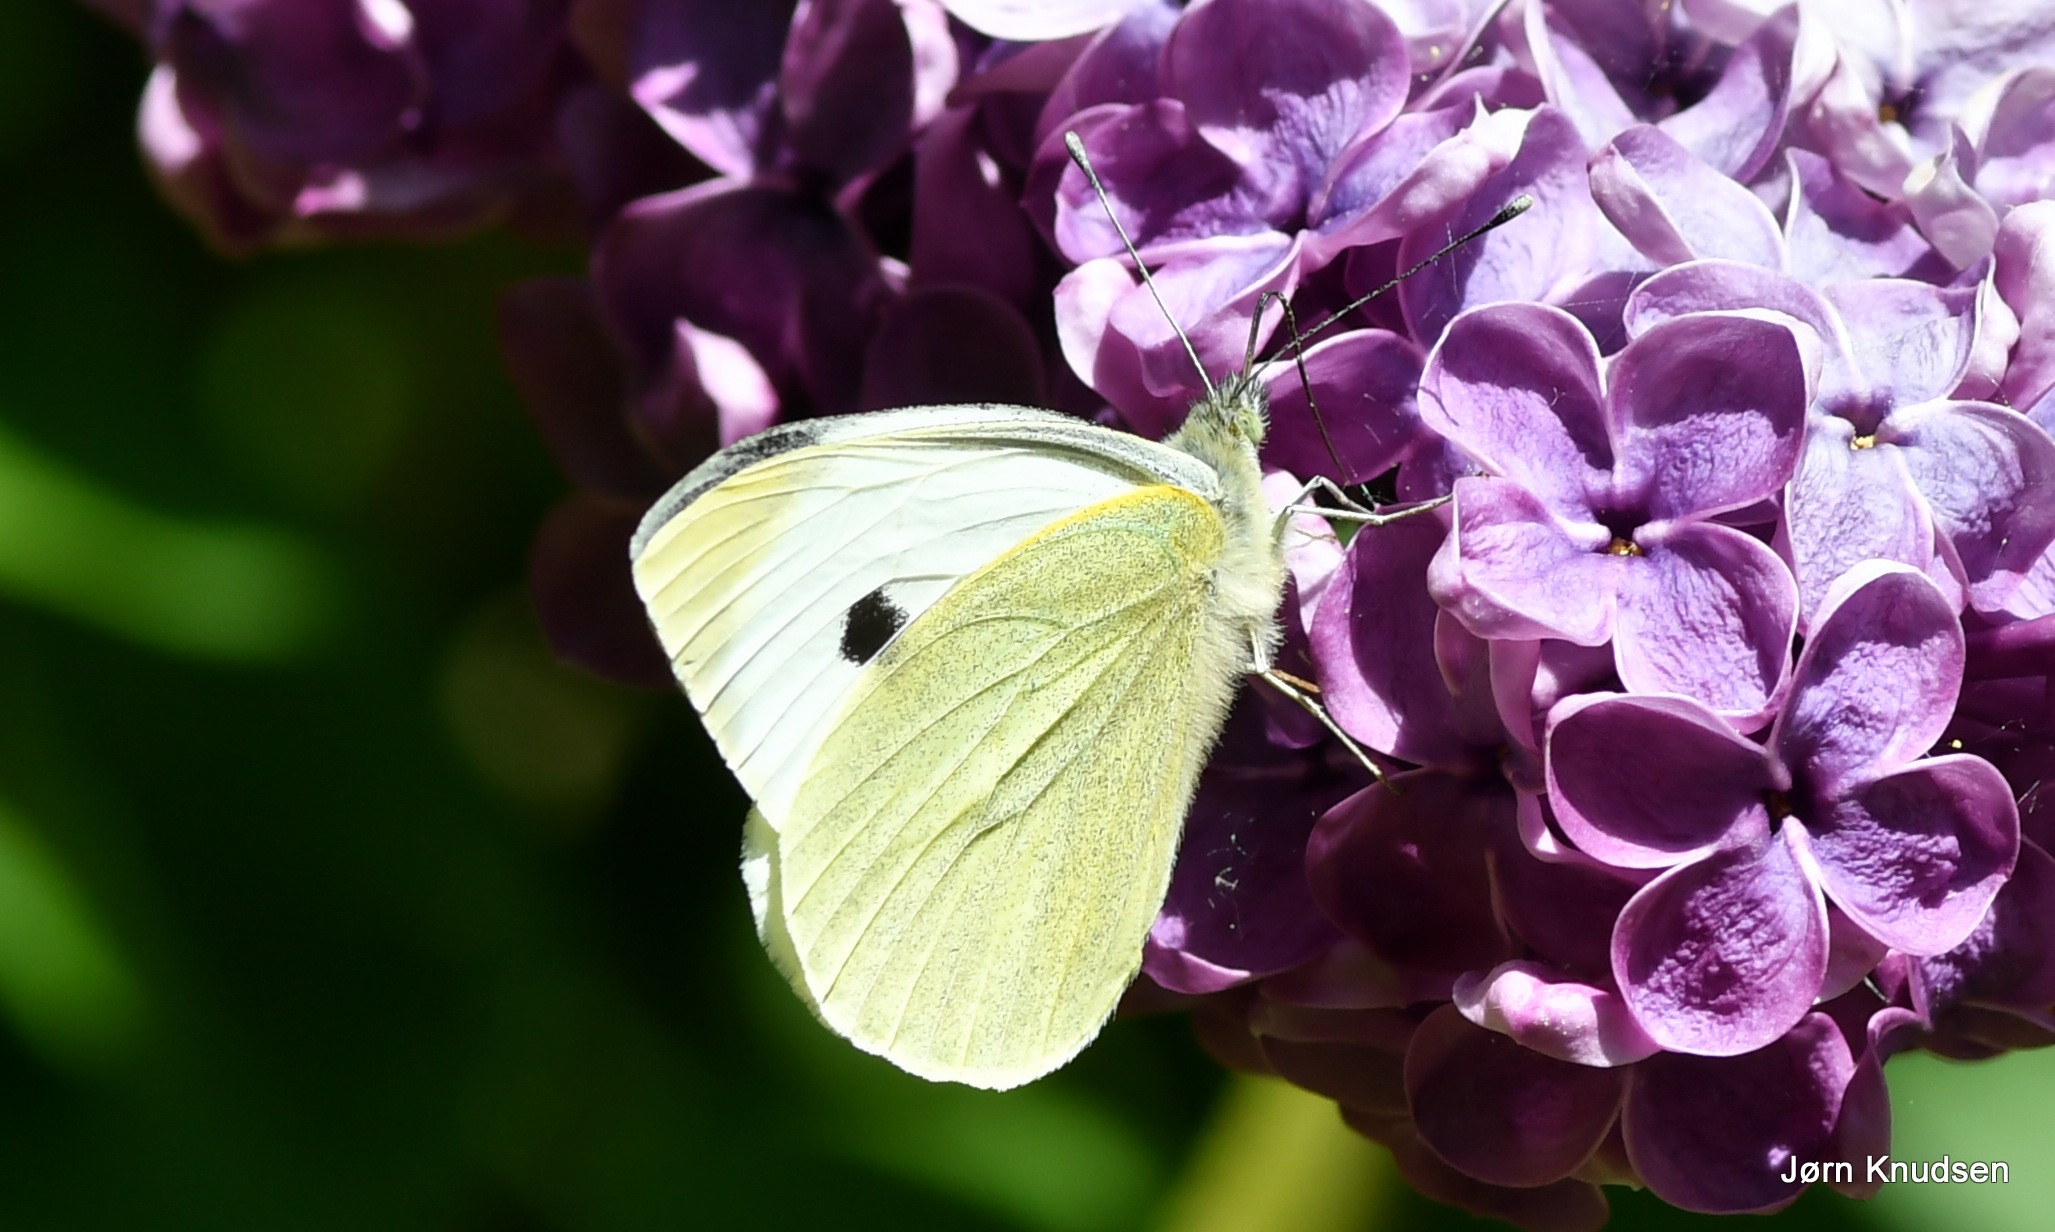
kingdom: Animalia
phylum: Arthropoda
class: Insecta
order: Lepidoptera
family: Pieridae
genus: Pieris
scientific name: Pieris brassicae
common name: Stor kålsommerfugl
